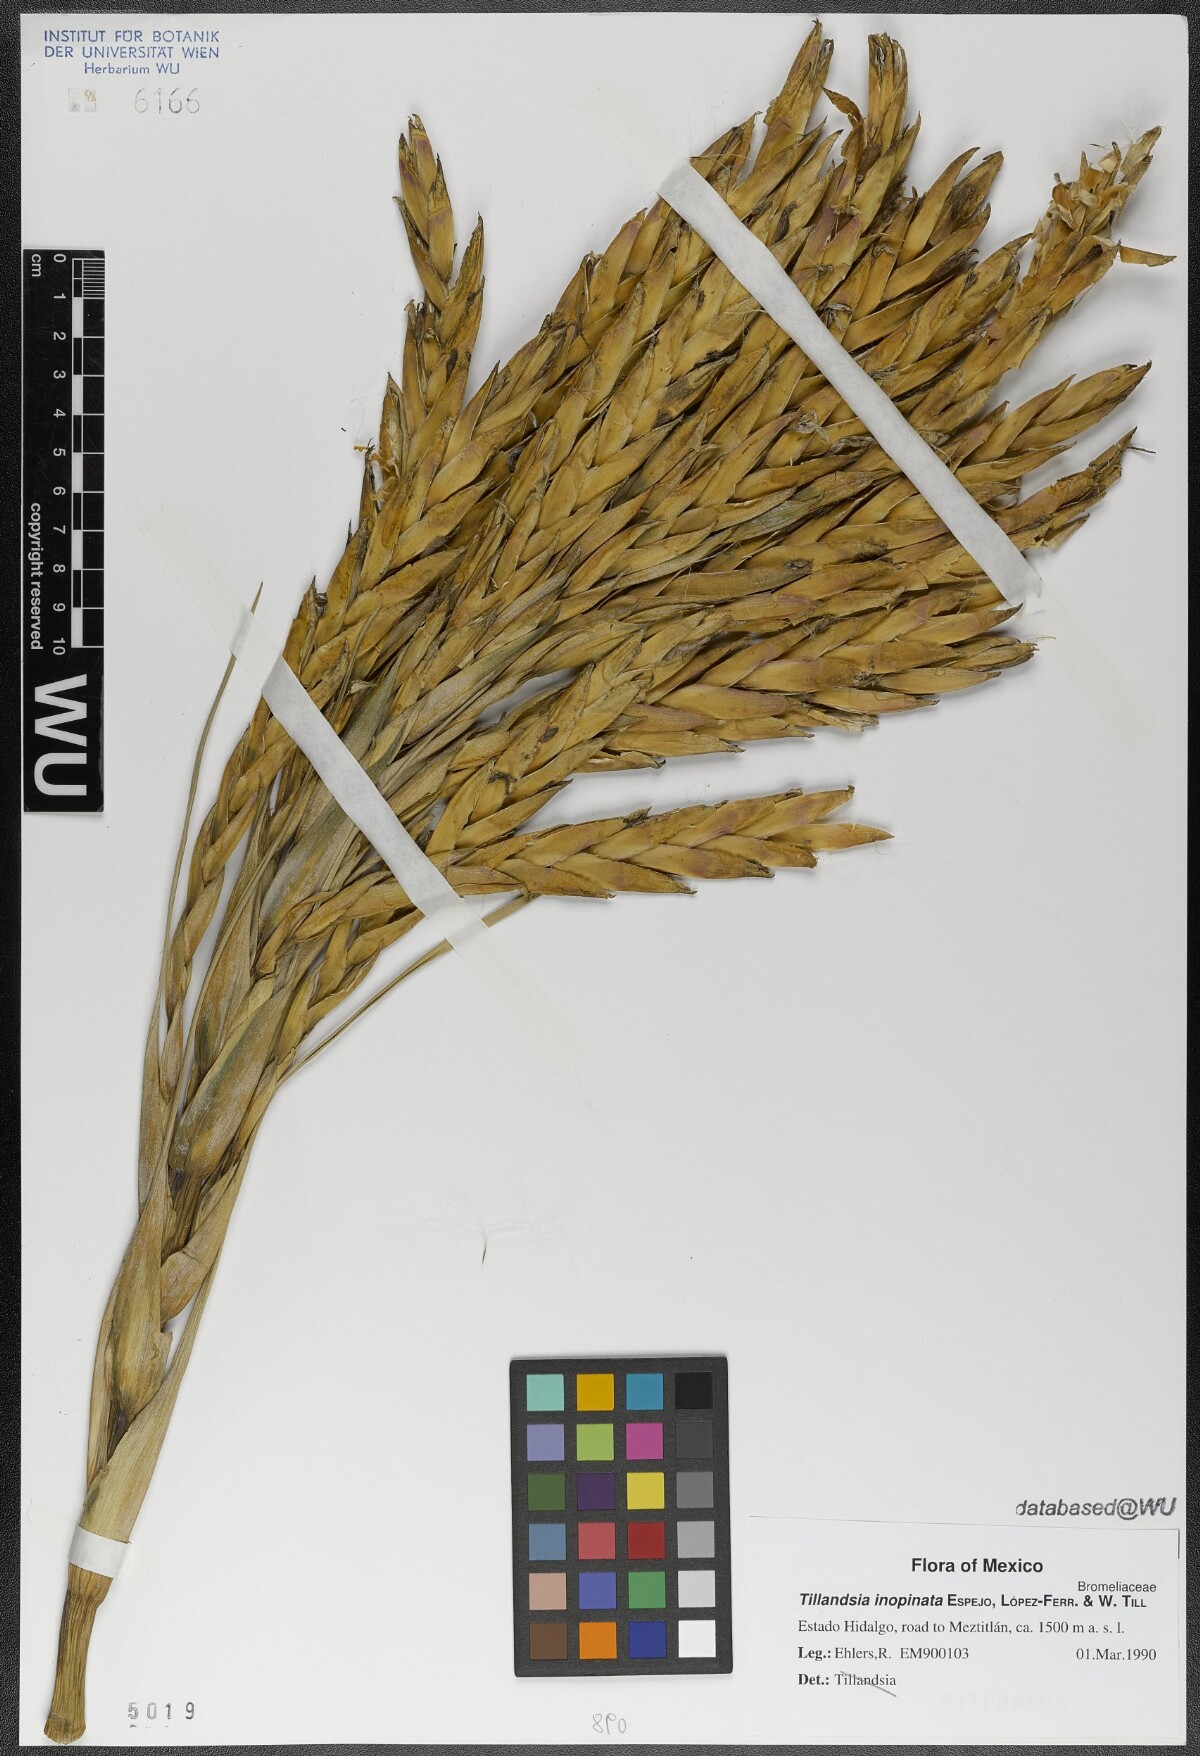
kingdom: Plantae
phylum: Tracheophyta
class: Liliopsida
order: Poales
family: Bromeliaceae
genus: Tillandsia
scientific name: Tillandsia inopinata
